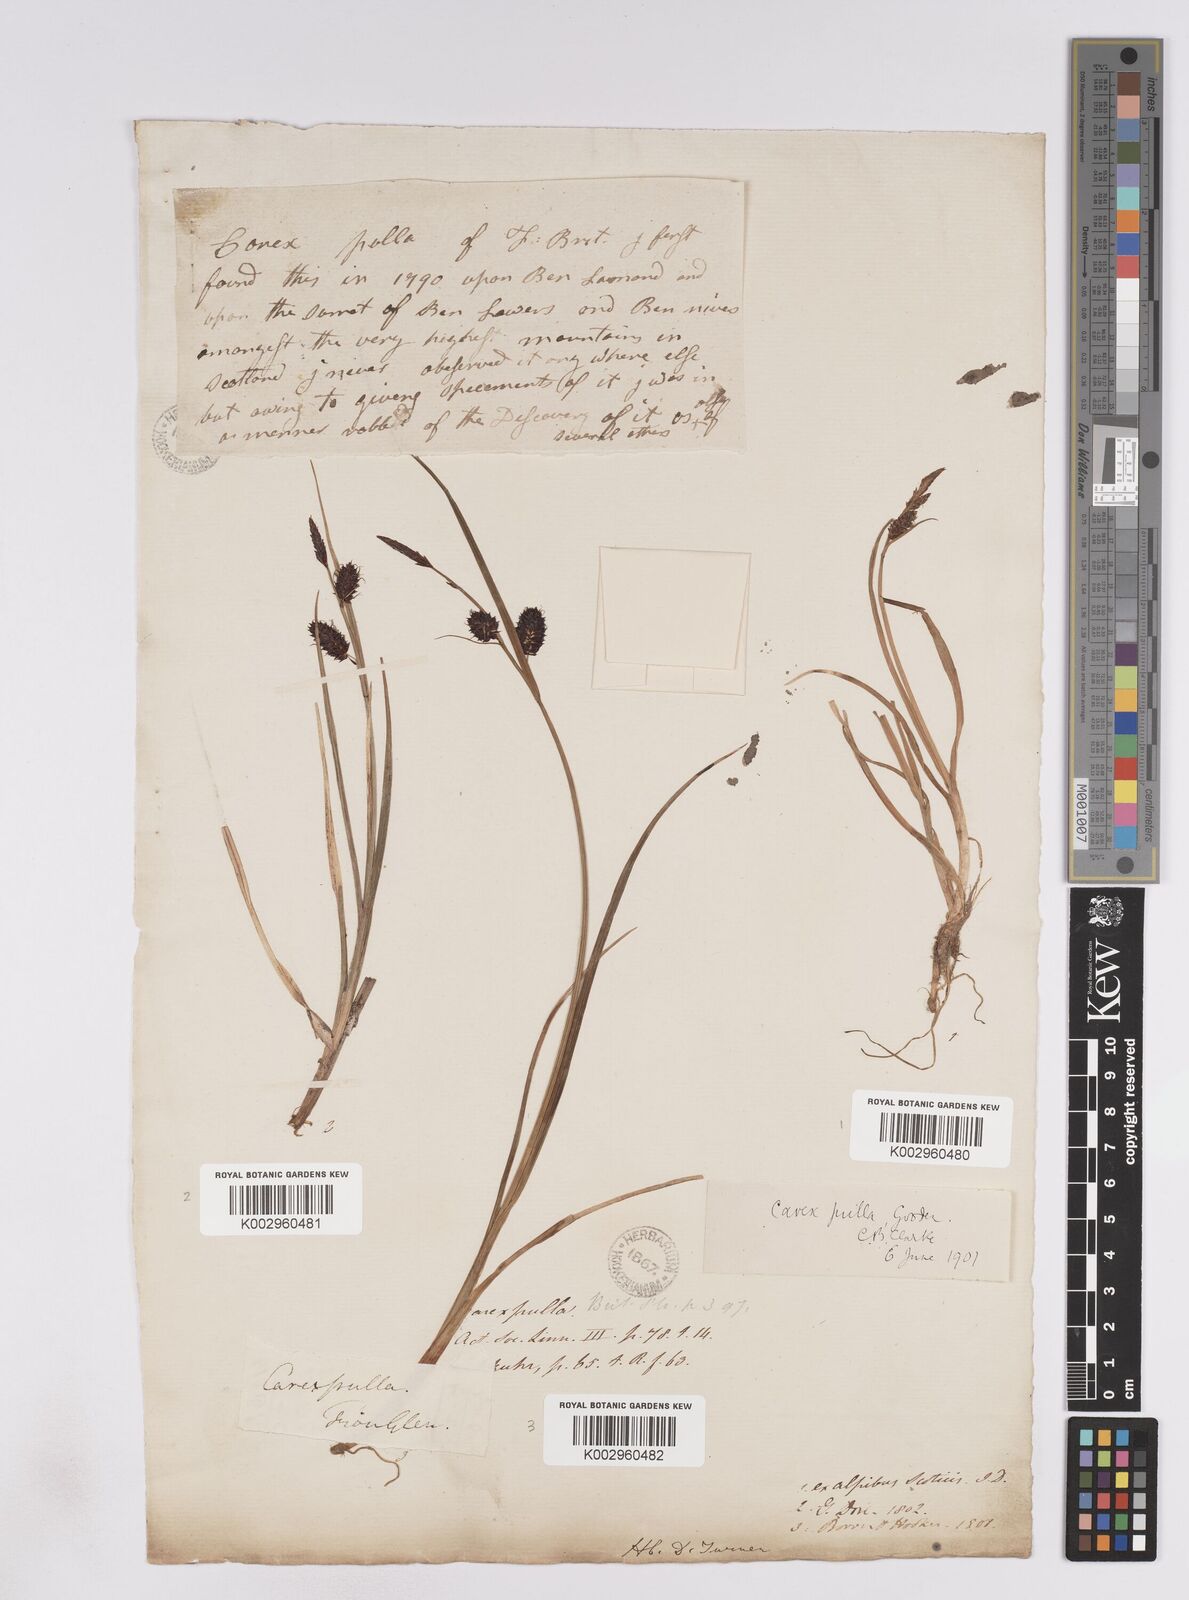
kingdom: Plantae
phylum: Tracheophyta
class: Liliopsida
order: Poales
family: Cyperaceae
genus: Carex
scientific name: Carex saxatilis
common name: Russet sedge
